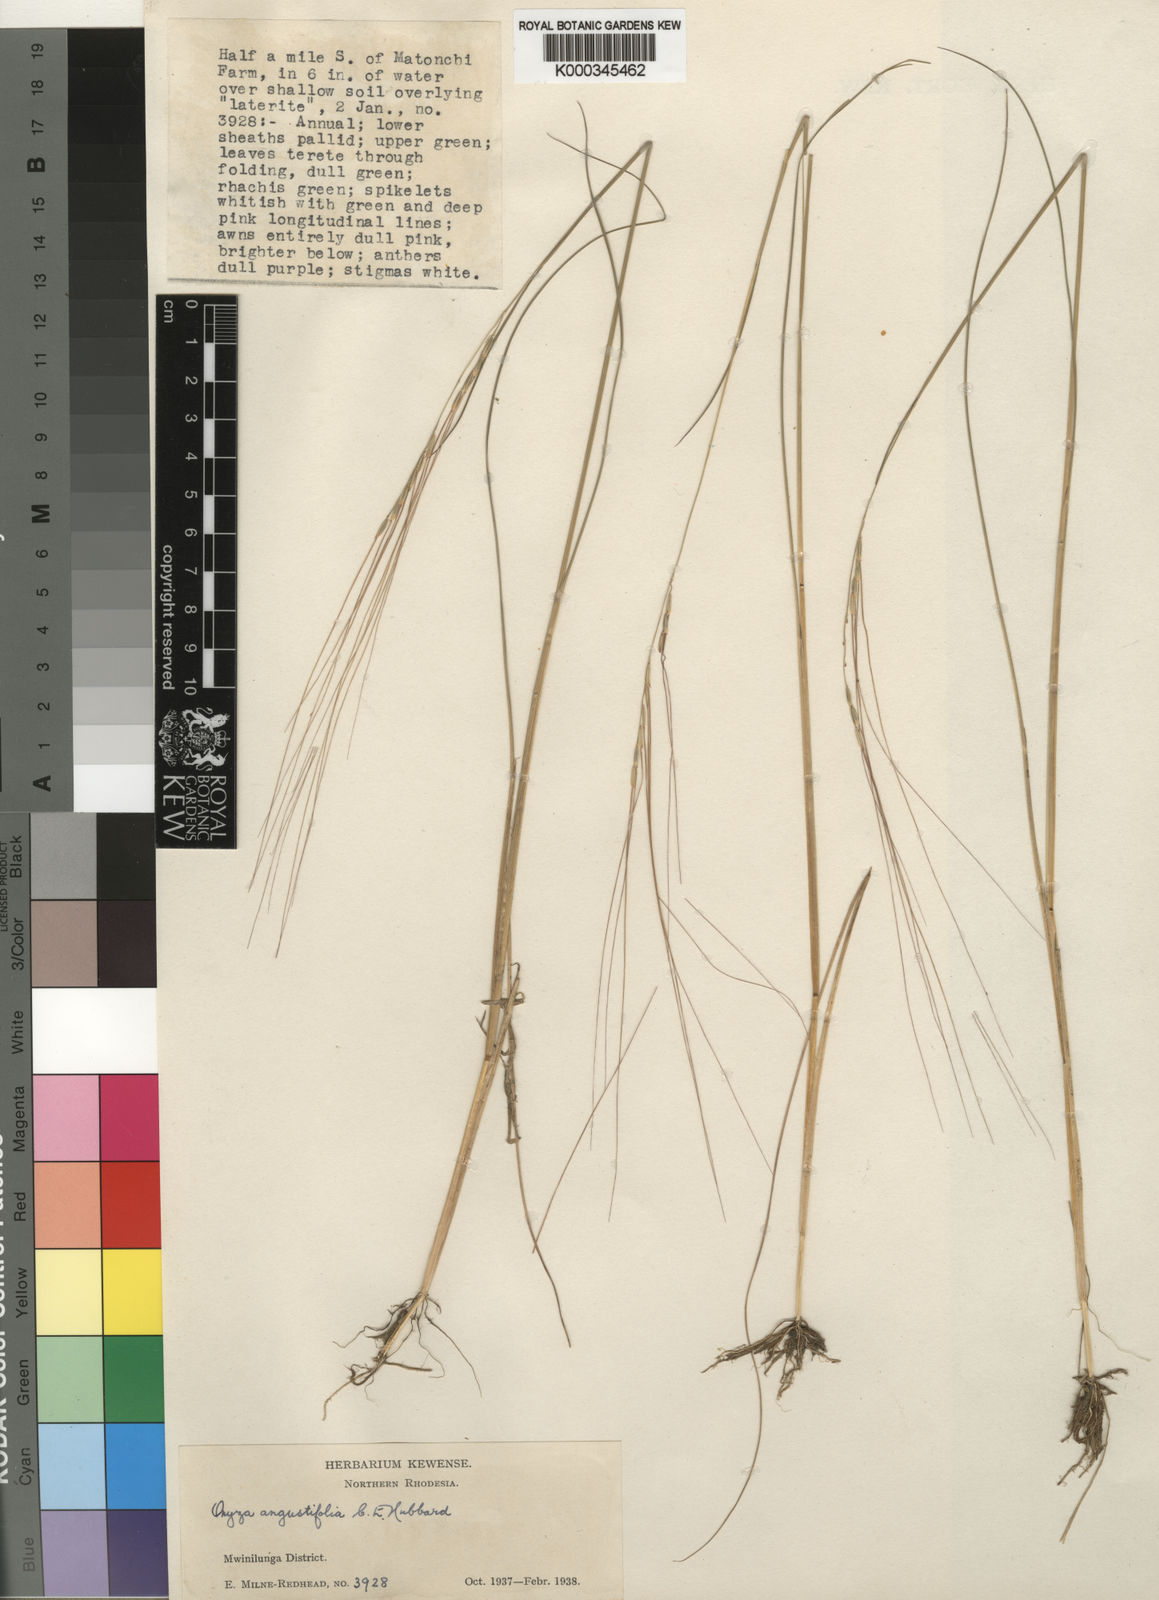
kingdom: Plantae
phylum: Tracheophyta
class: Liliopsida
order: Poales
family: Poaceae
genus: Leersia
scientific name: Leersia nematostachya
